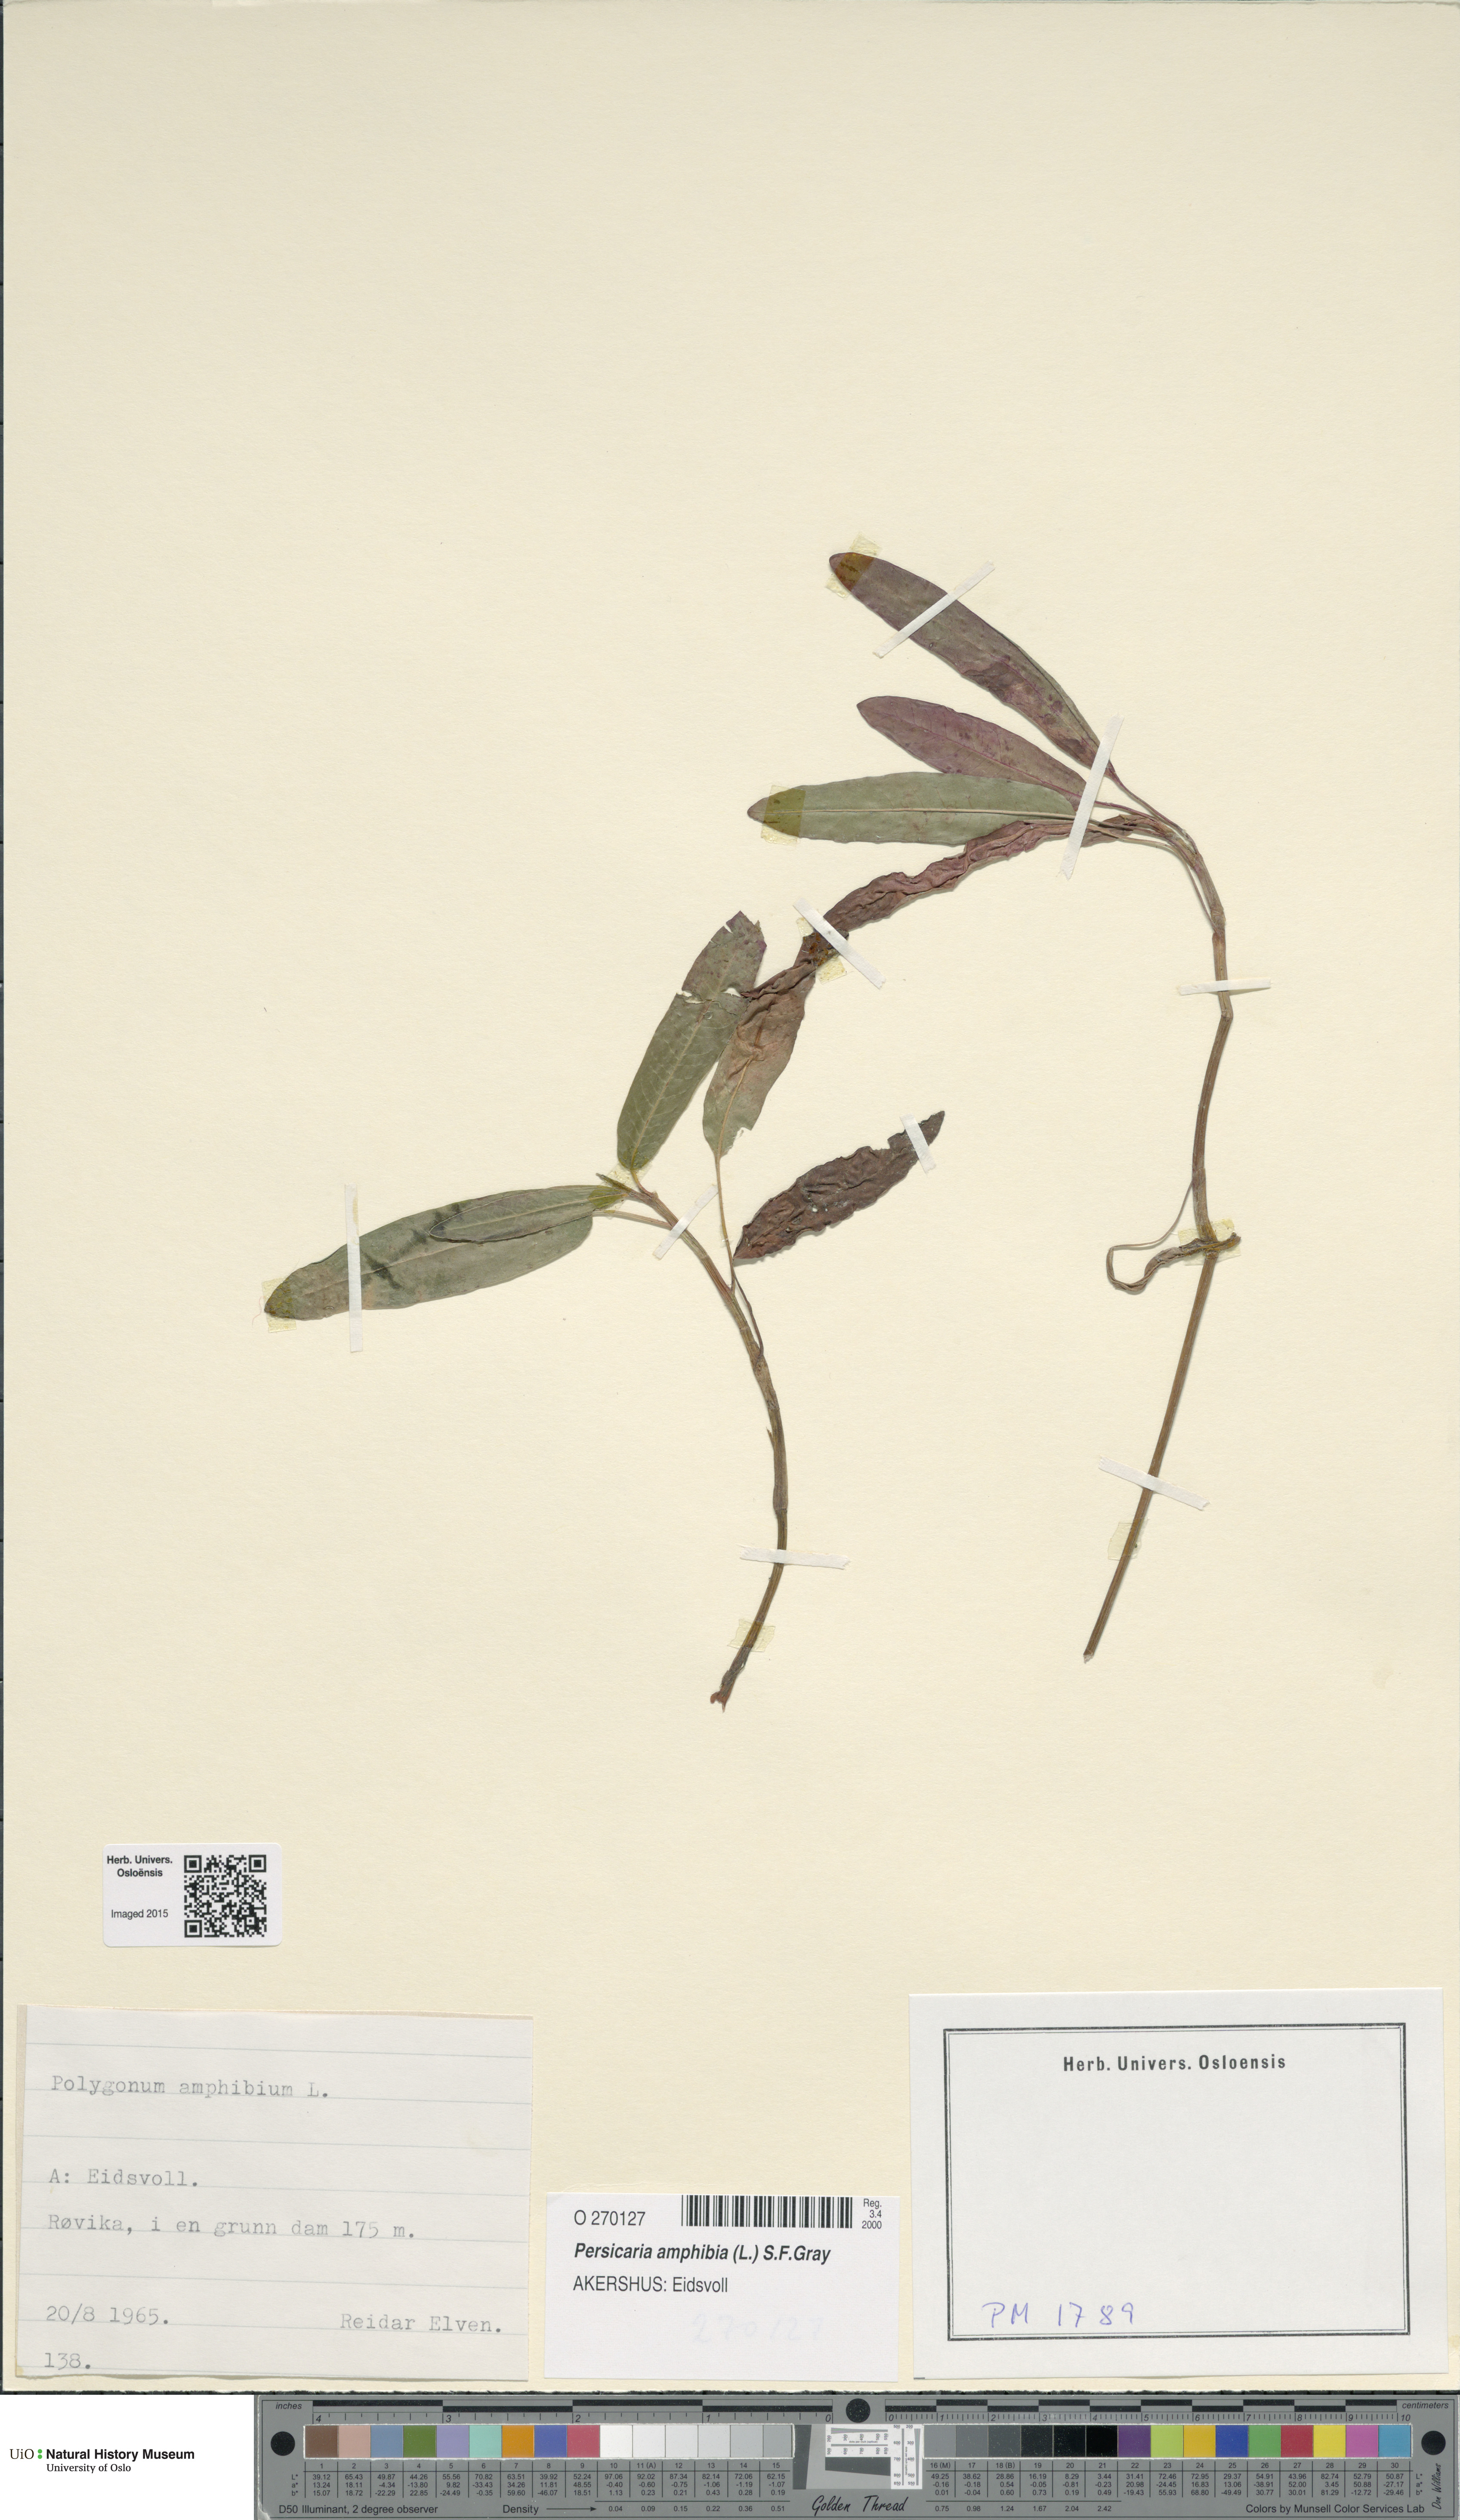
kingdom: Plantae
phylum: Tracheophyta
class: Magnoliopsida
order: Caryophyllales
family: Polygonaceae
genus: Persicaria
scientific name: Persicaria amphibia
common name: Amphibious bistort
